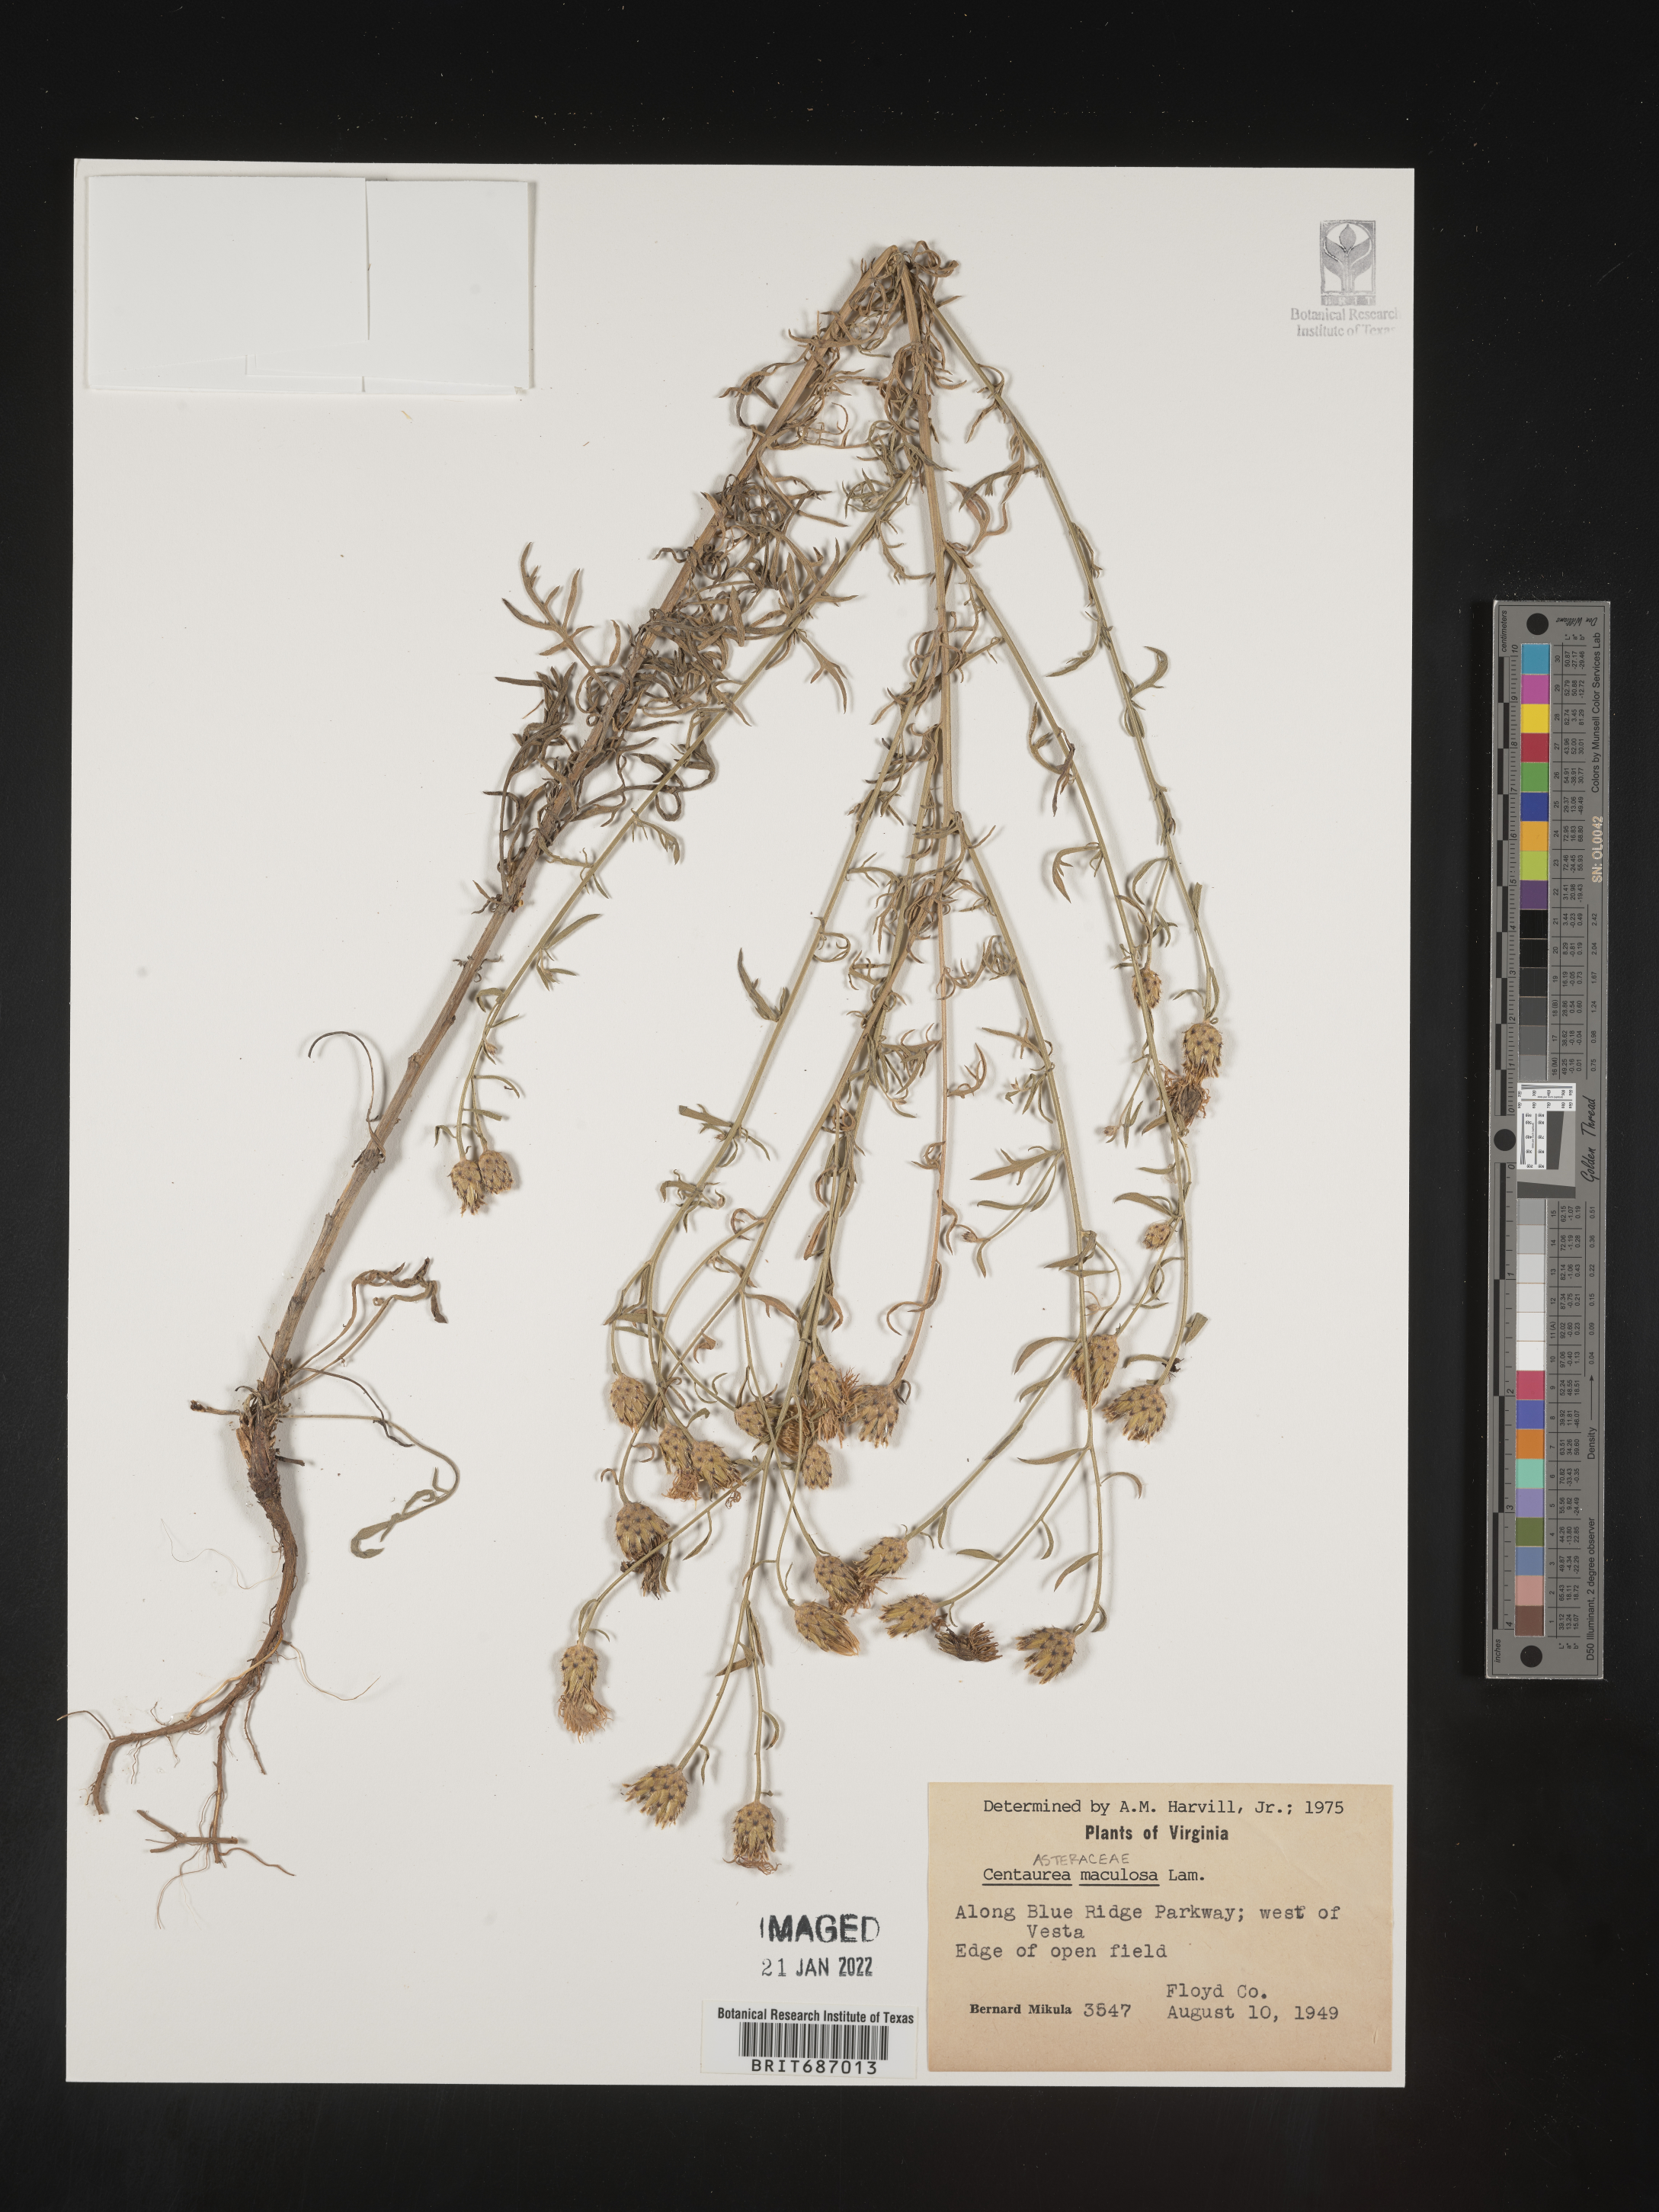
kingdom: Plantae
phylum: Tracheophyta
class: Magnoliopsida
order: Asterales
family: Asteraceae
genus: Centaurea
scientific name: Centaurea
